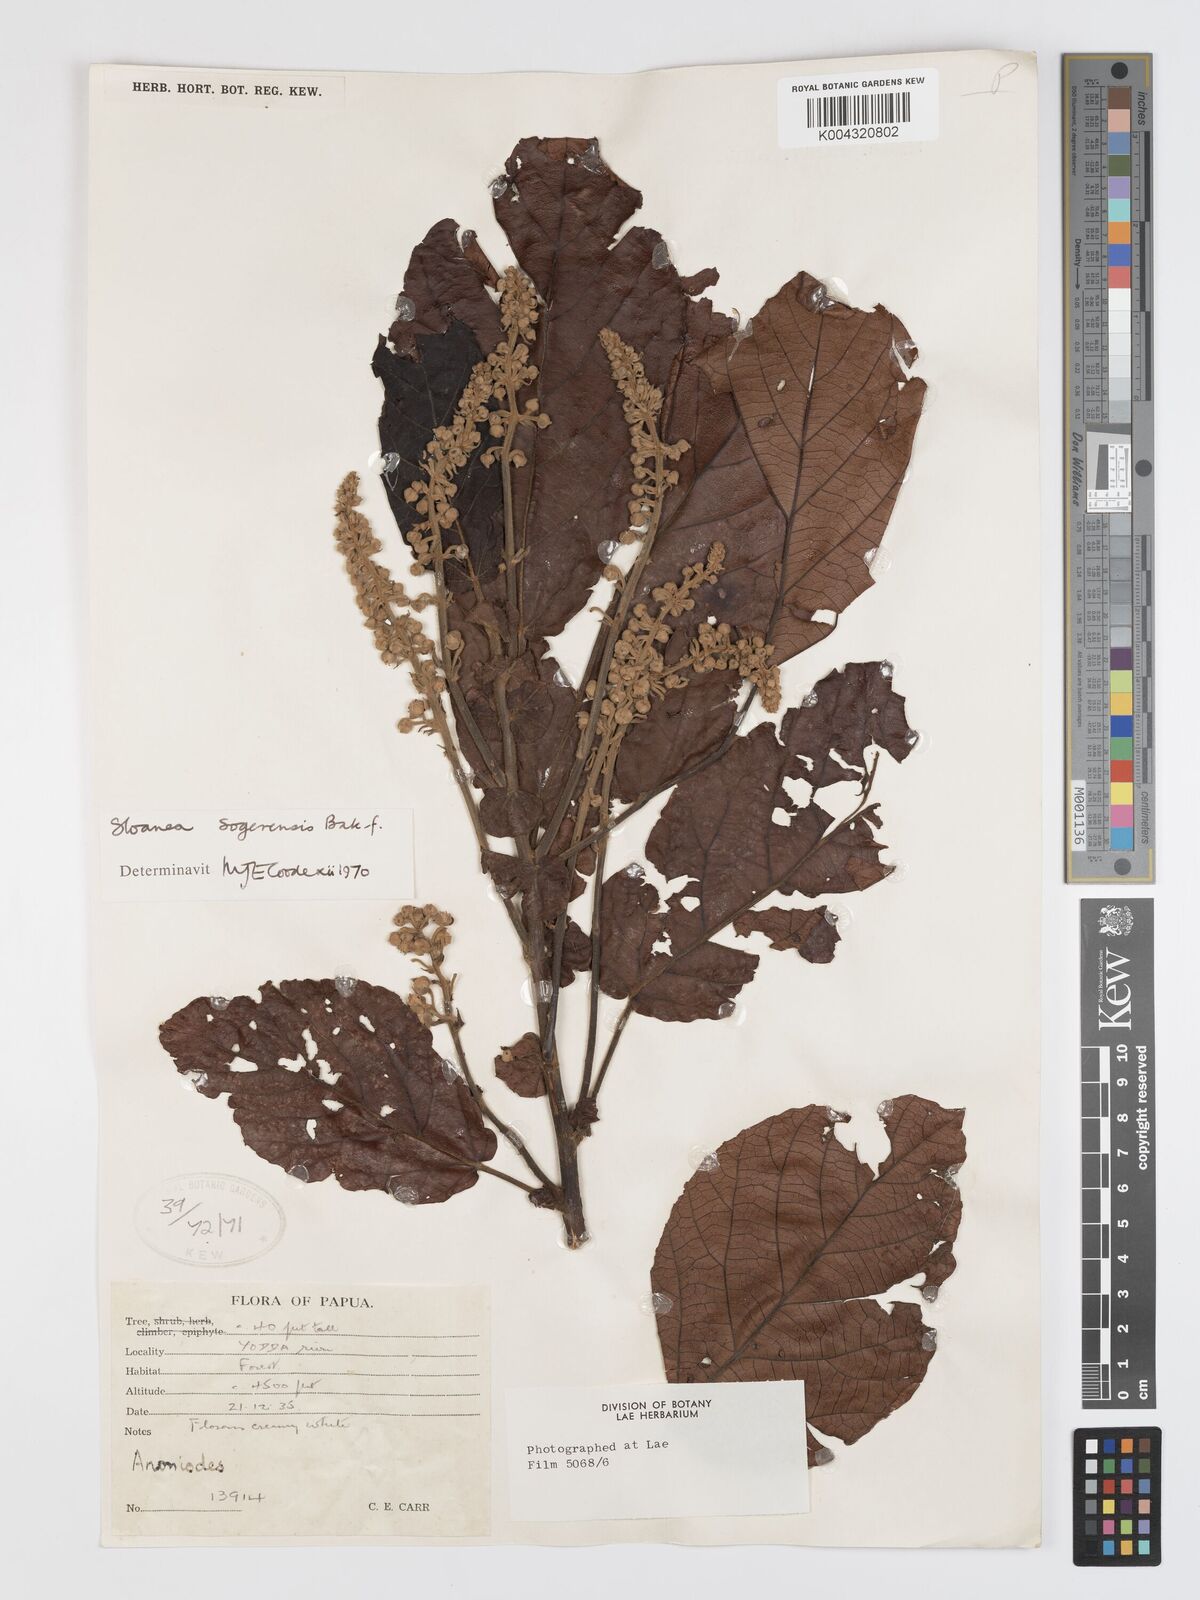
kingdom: Plantae
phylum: Tracheophyta
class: Magnoliopsida
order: Oxalidales
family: Elaeocarpaceae
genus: Sloanea
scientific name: Sloanea sogerensis
